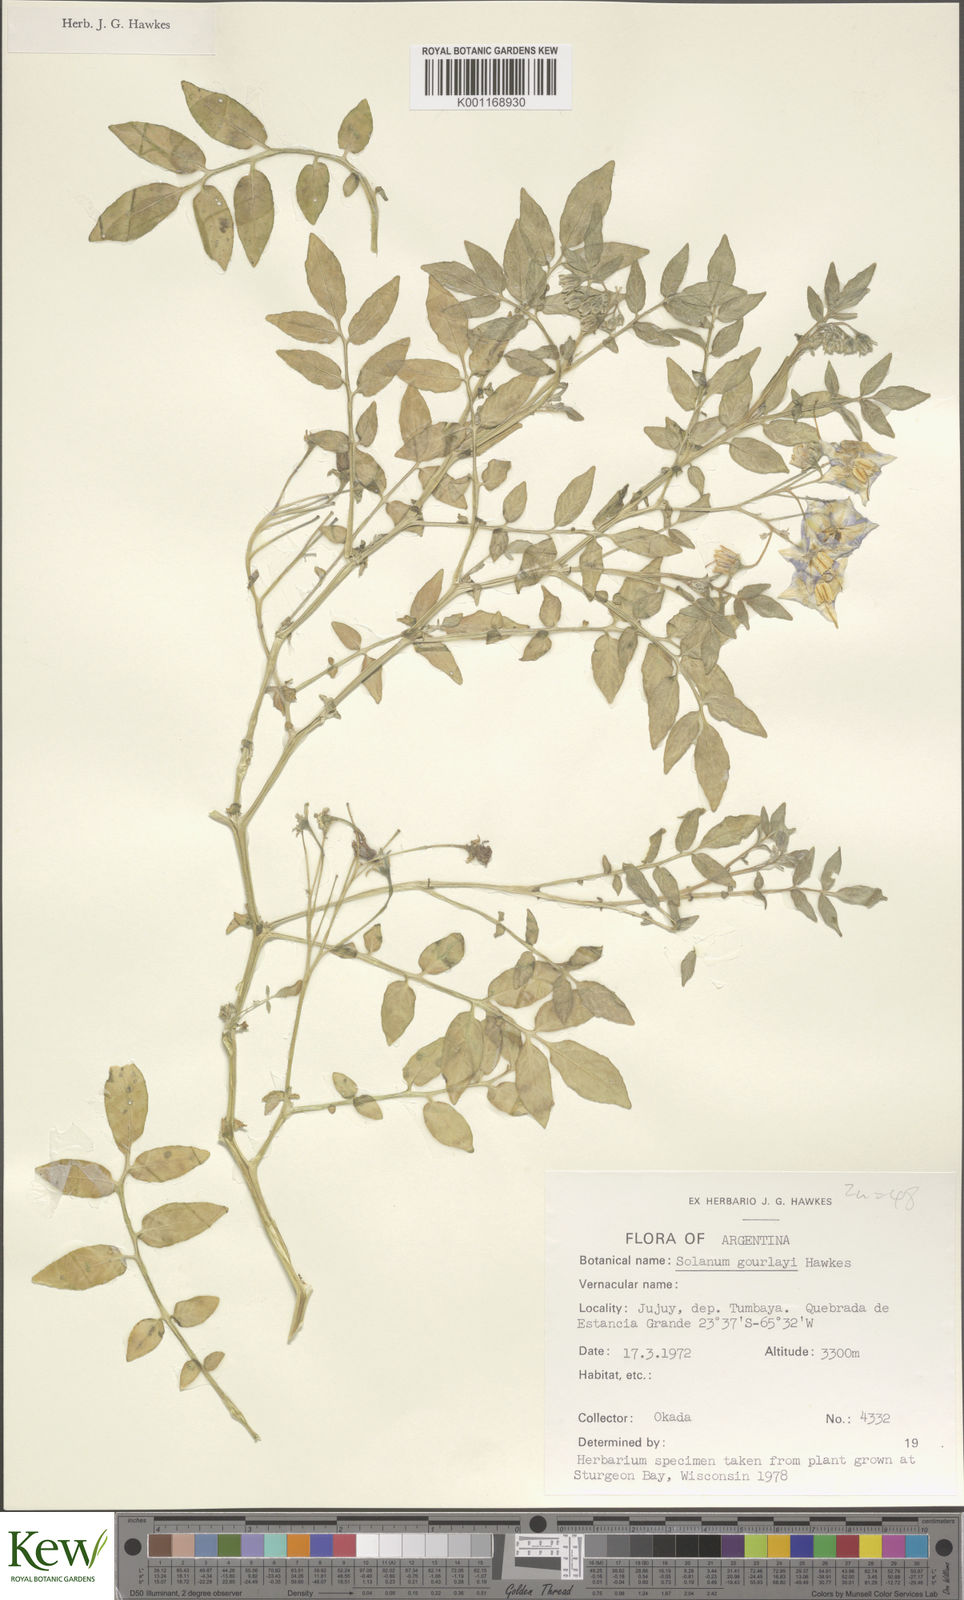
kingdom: Plantae
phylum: Tracheophyta
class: Magnoliopsida
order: Solanales
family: Solanaceae
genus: Solanum
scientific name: Solanum brevicaule
